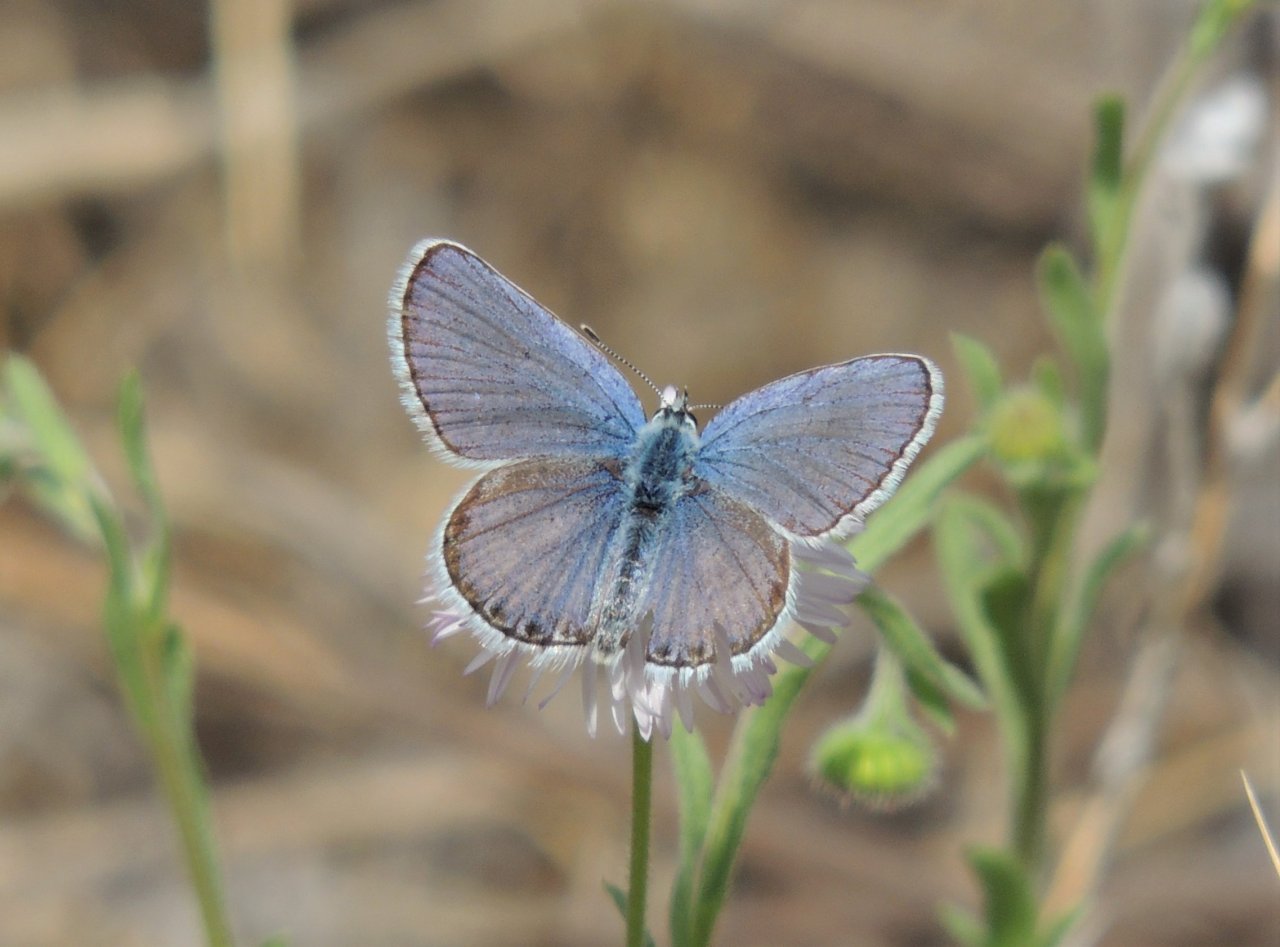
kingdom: Animalia
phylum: Arthropoda
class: Insecta
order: Lepidoptera
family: Lycaenidae
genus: Lycaeides
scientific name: Lycaeides melissa
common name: Melissa Blue
